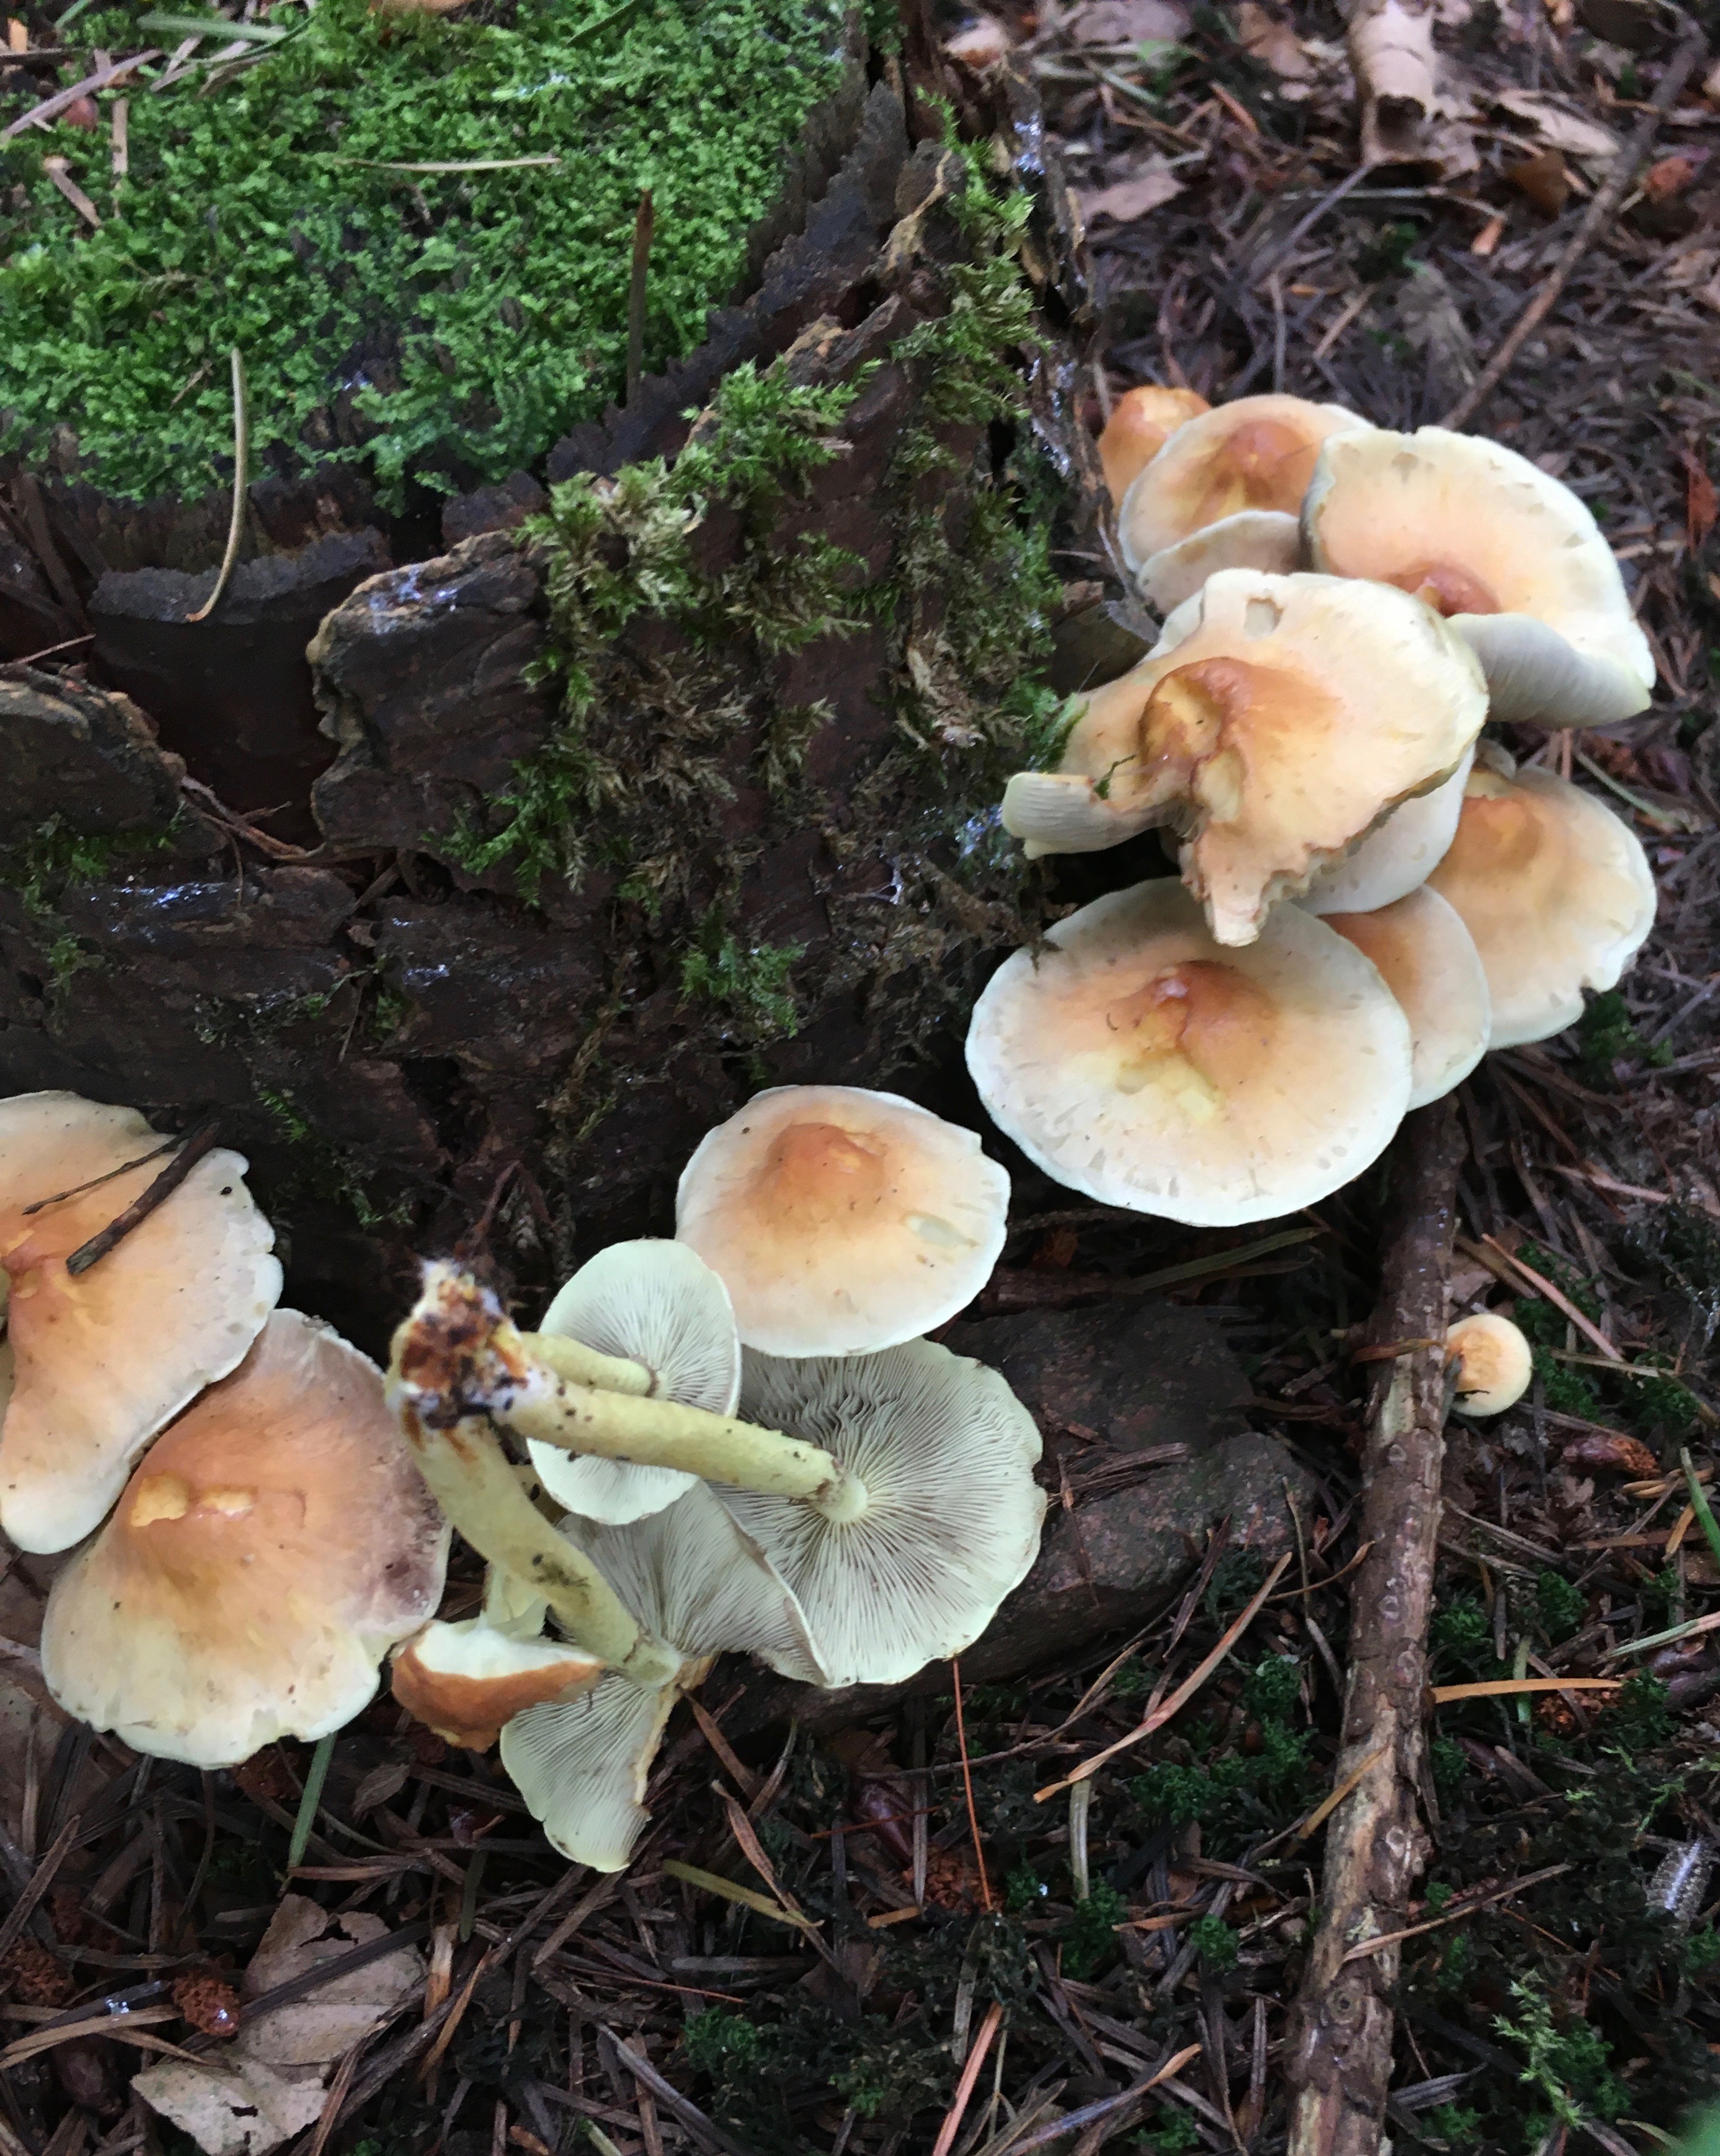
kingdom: Fungi
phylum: Basidiomycota
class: Agaricomycetes
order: Agaricales
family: Strophariaceae
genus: Hypholoma
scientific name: Hypholoma fasciculare
